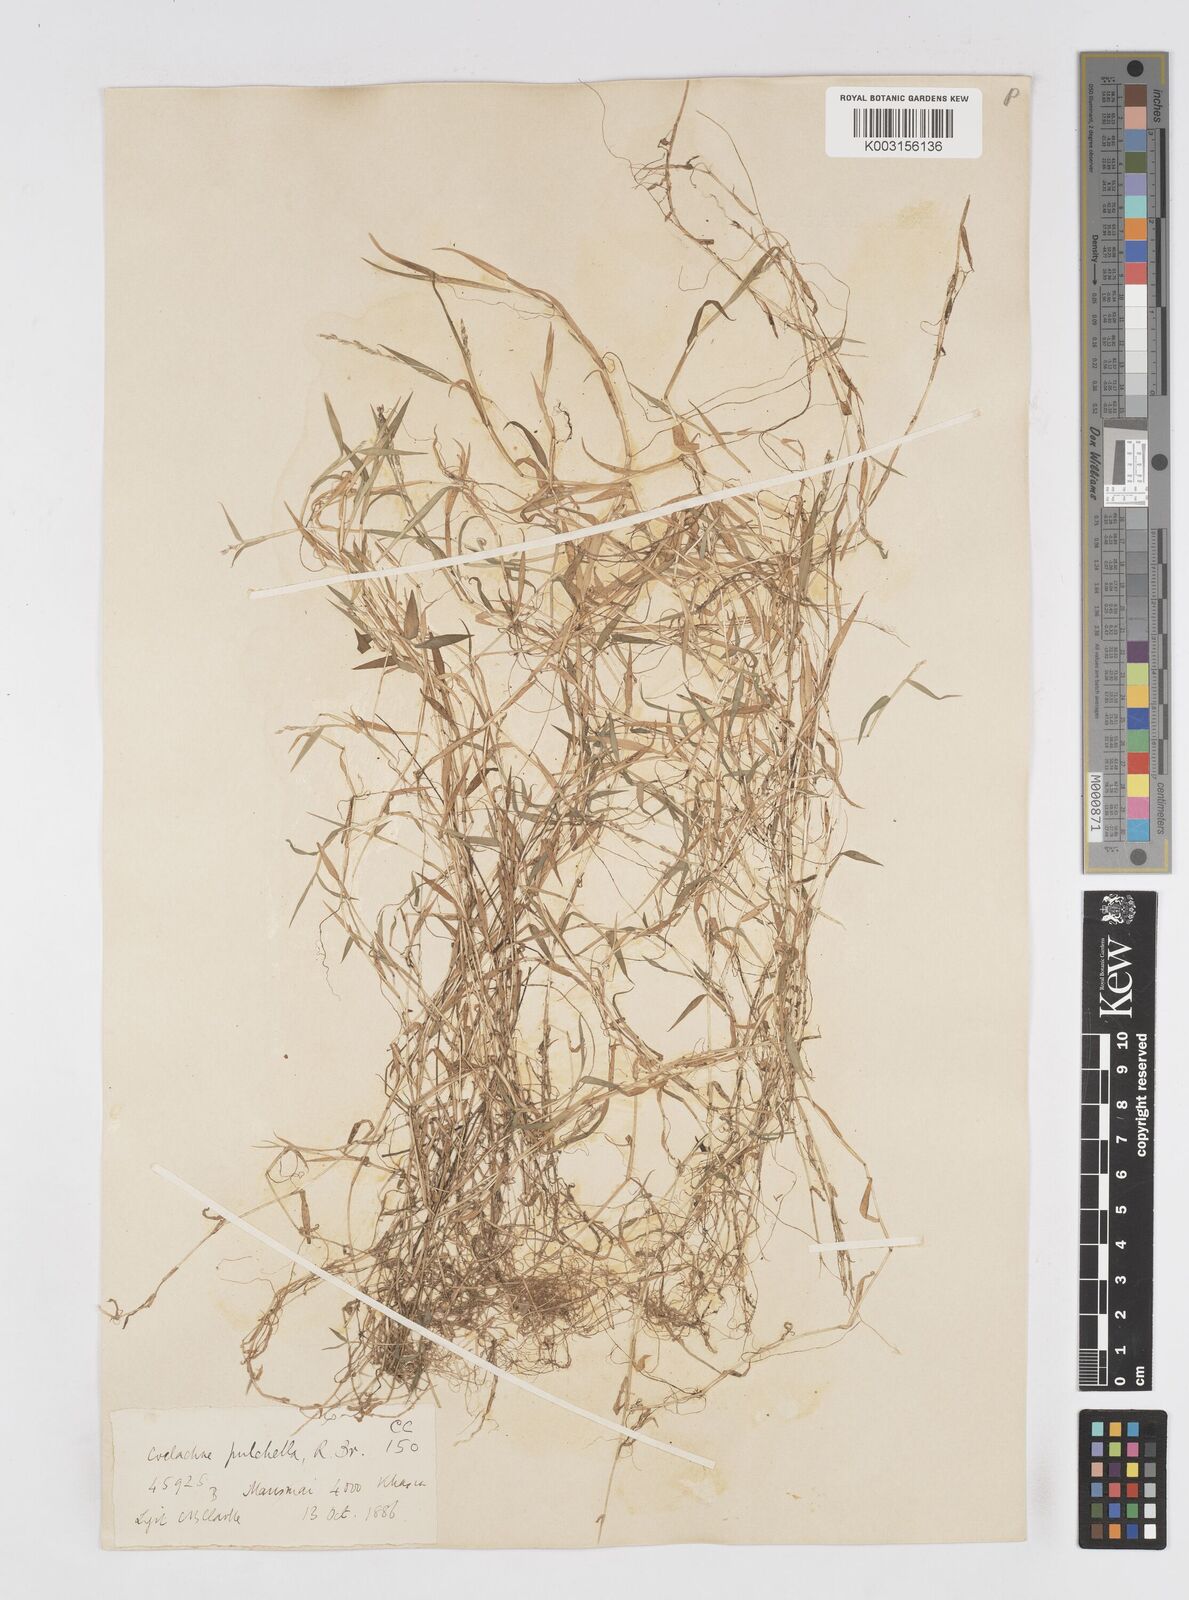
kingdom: Plantae
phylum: Tracheophyta
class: Liliopsida
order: Poales
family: Poaceae
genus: Coelachne
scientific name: Coelachne simpliciuscula
